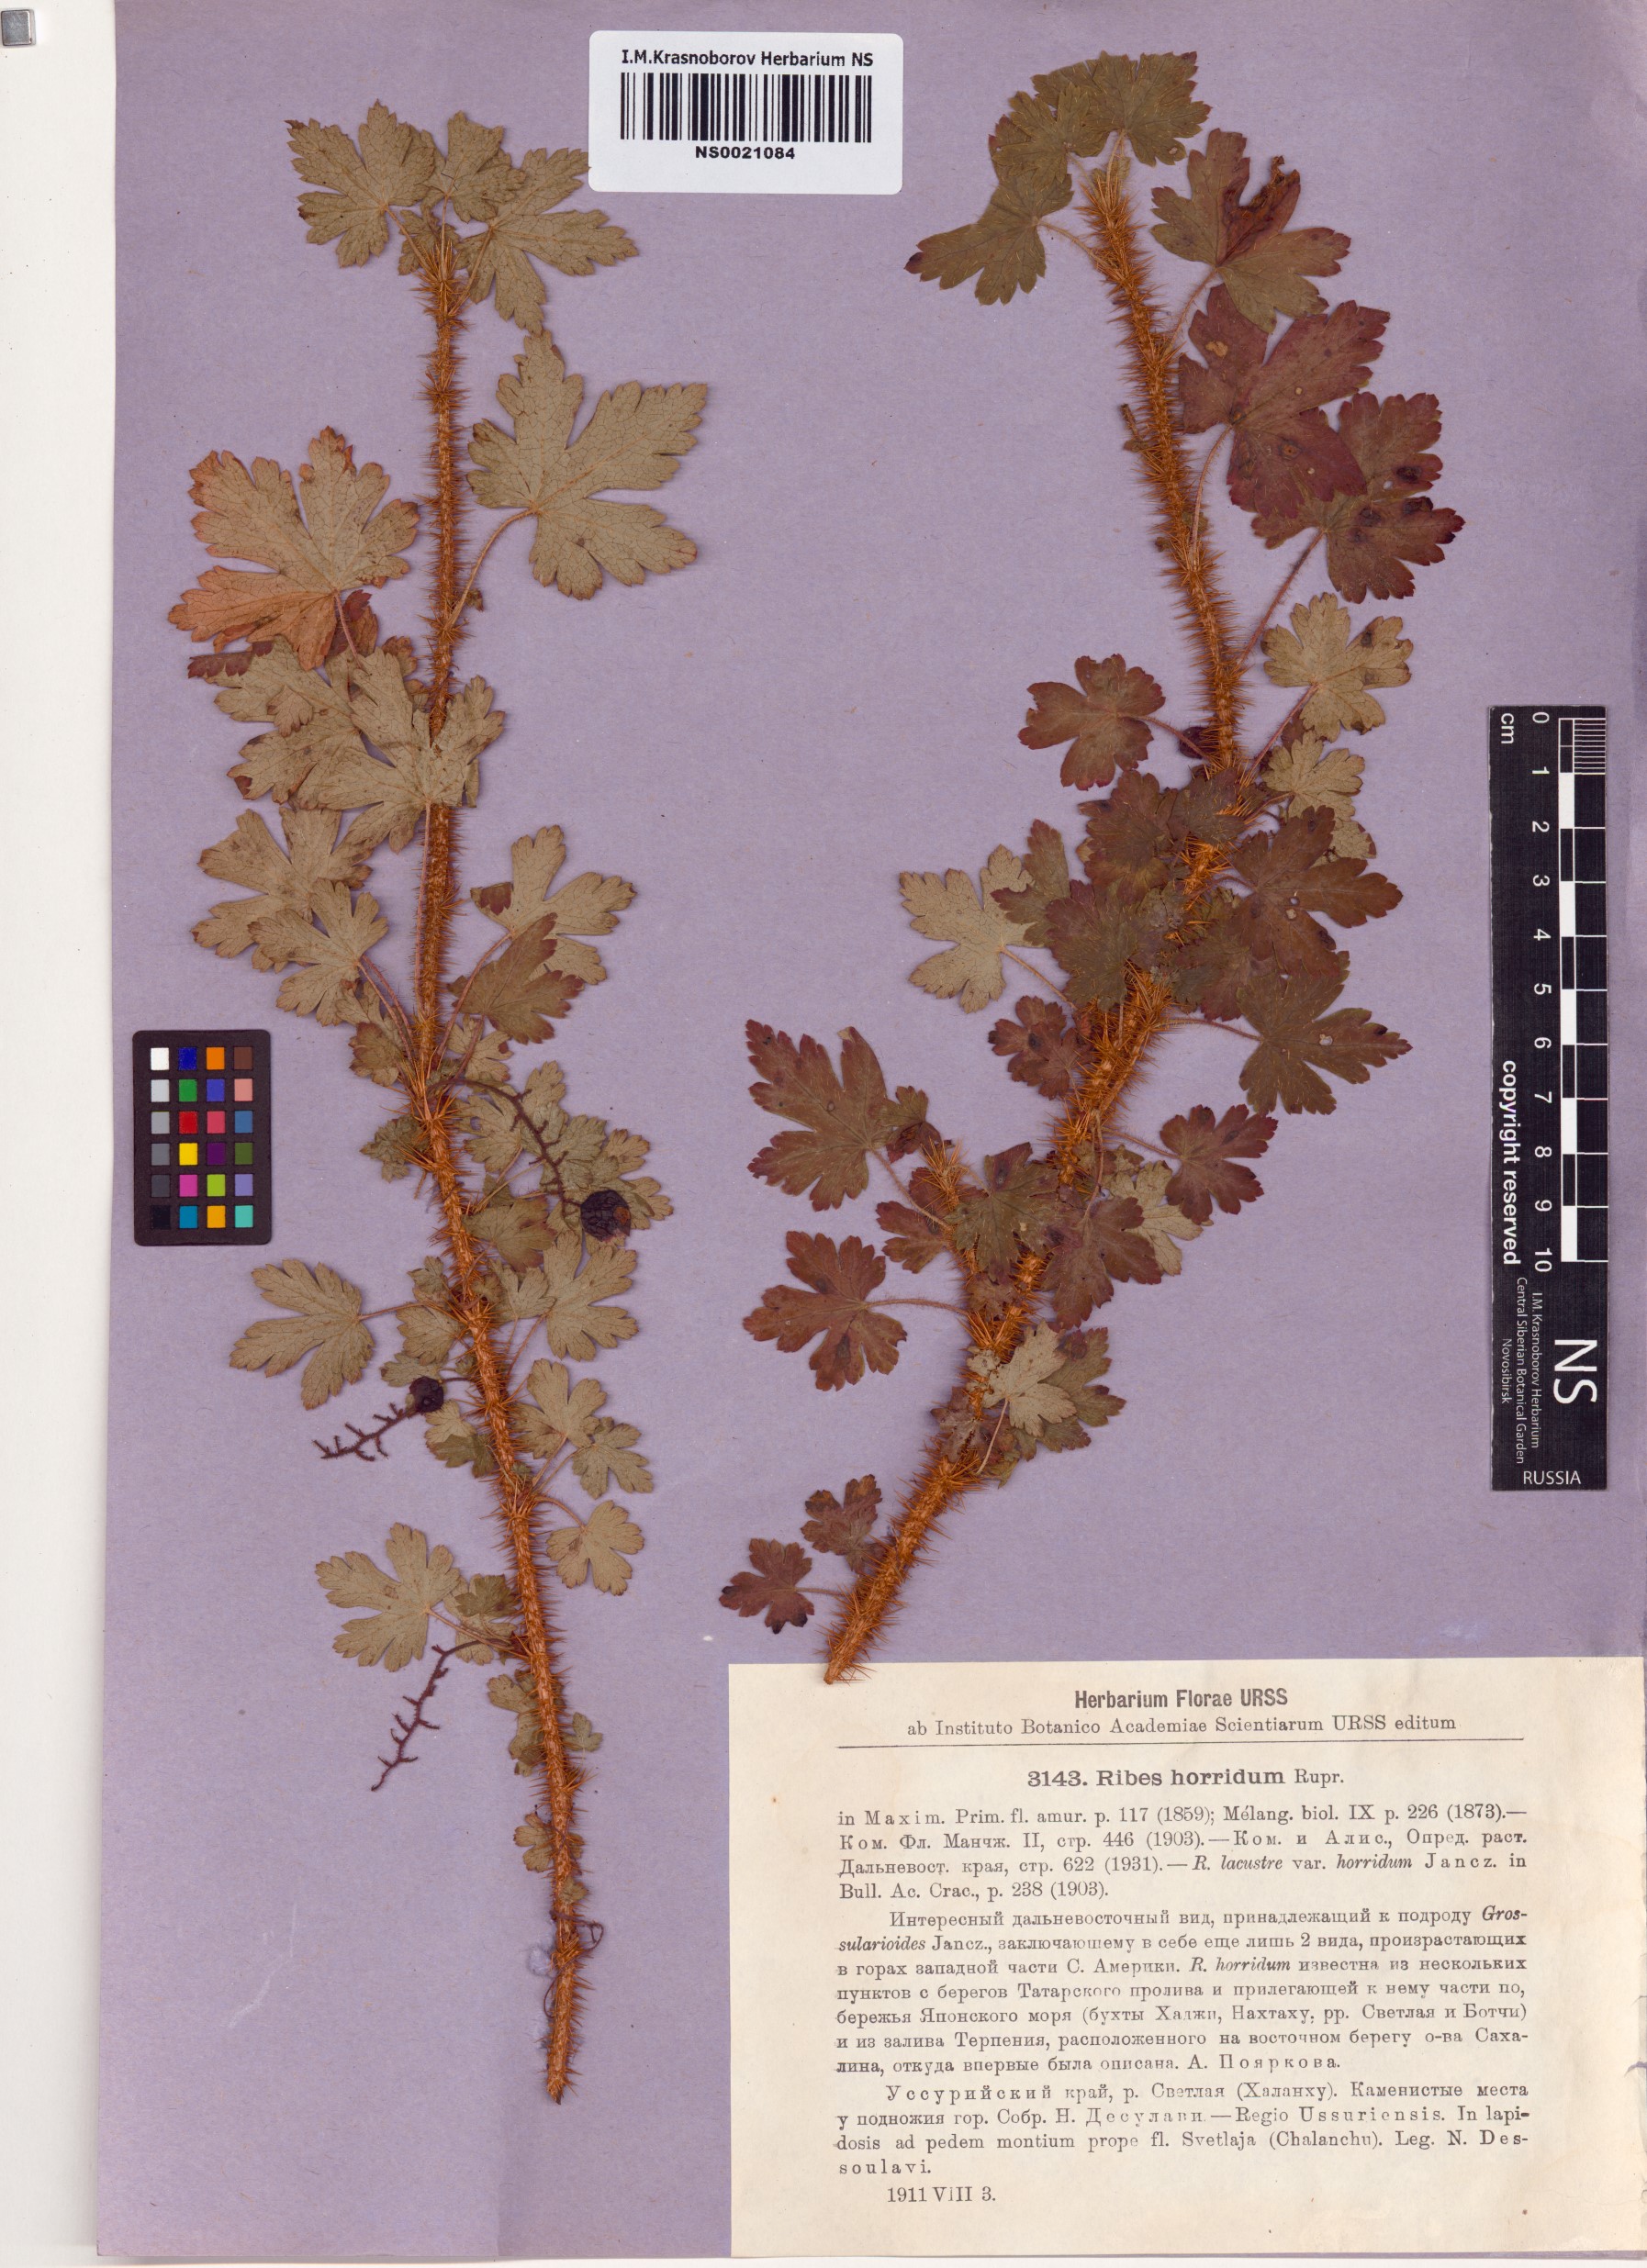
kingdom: Plantae
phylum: Tracheophyta
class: Magnoliopsida
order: Saxifragales
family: Grossulariaceae
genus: Ribes
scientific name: Ribes horridum
